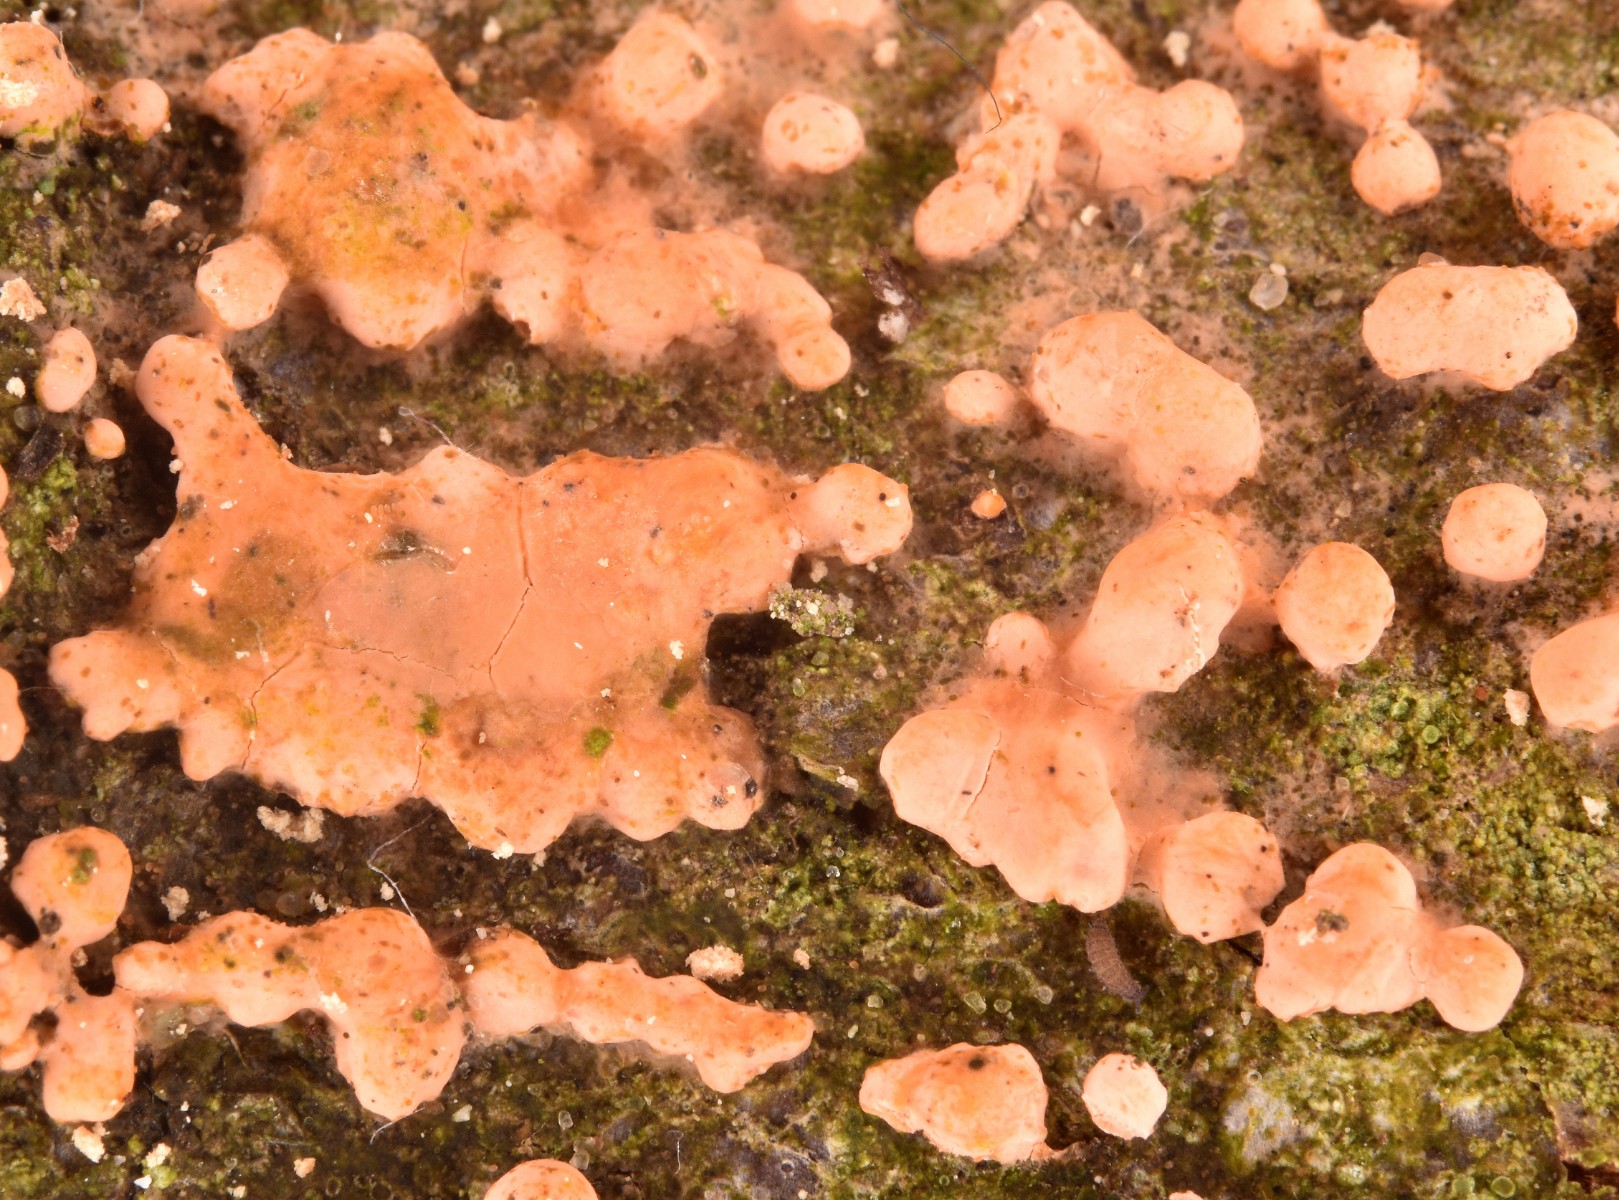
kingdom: Fungi
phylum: Ascomycota
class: Sordariomycetes
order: Hypocreales
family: Nectriaceae
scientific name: Nectriaceae
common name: cinnobersvampfamilien
